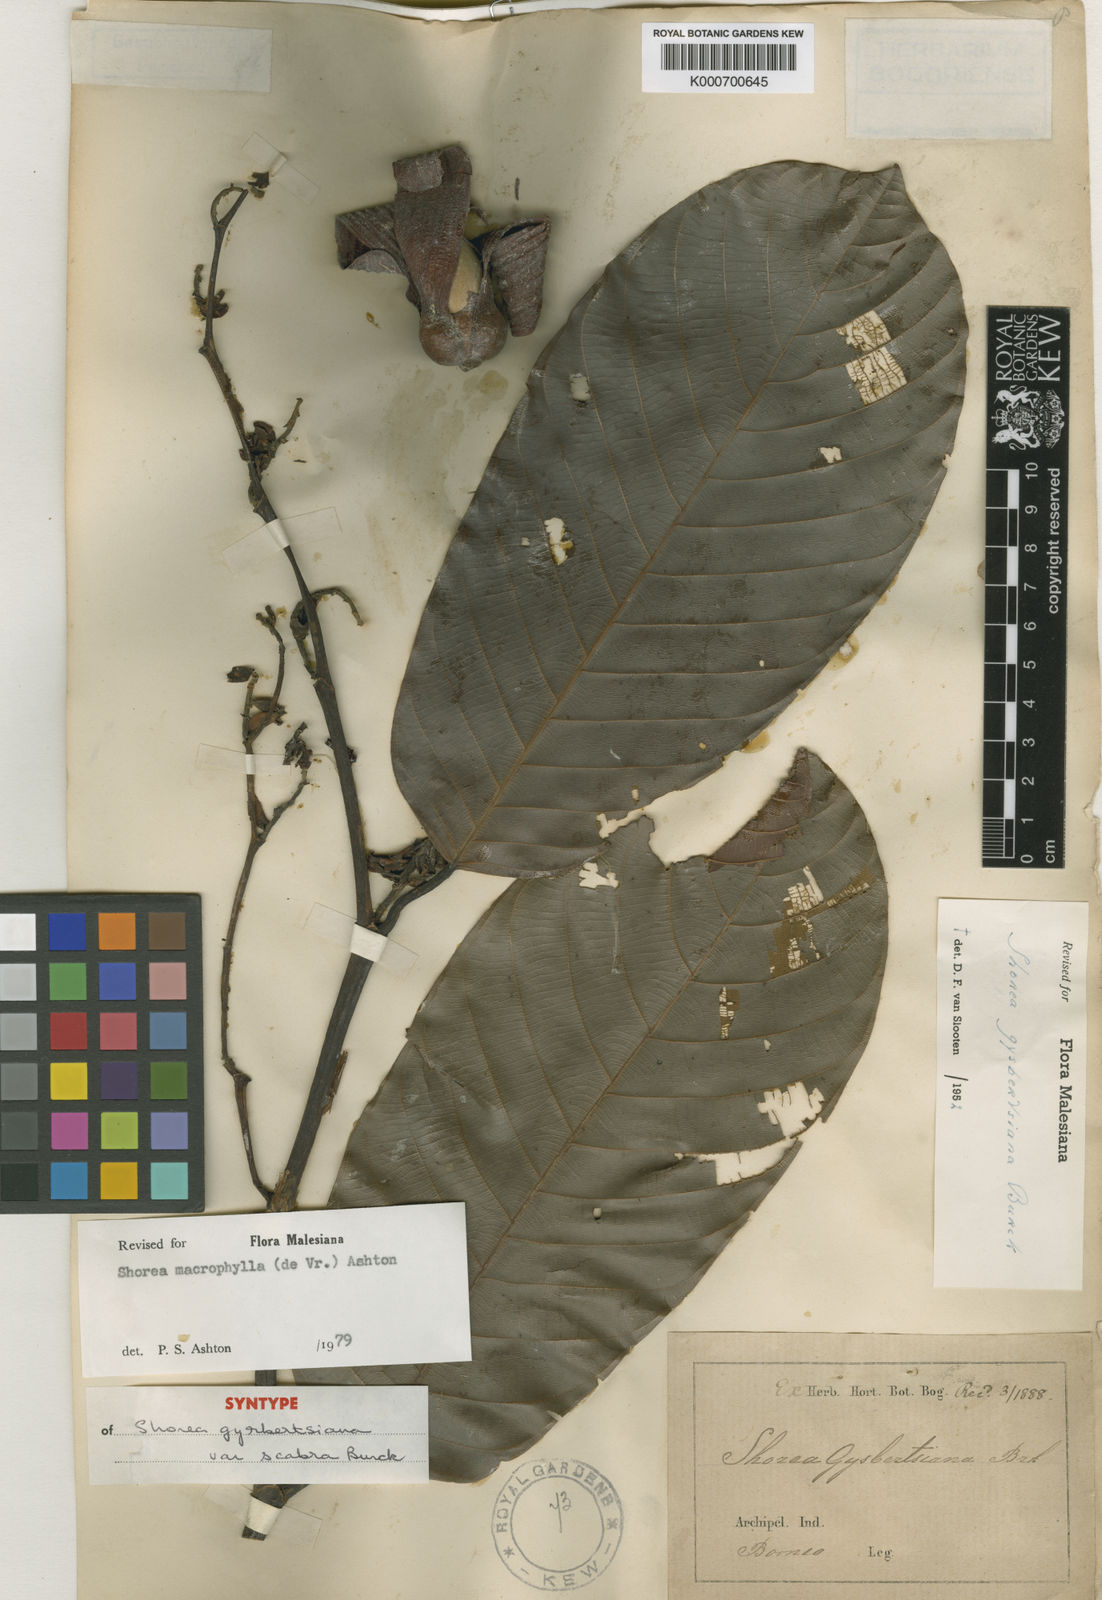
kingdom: Plantae
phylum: Tracheophyta
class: Magnoliopsida
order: Malvales
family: Dipterocarpaceae
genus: Shorea
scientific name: Shorea macrophylla
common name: Light red meranti
